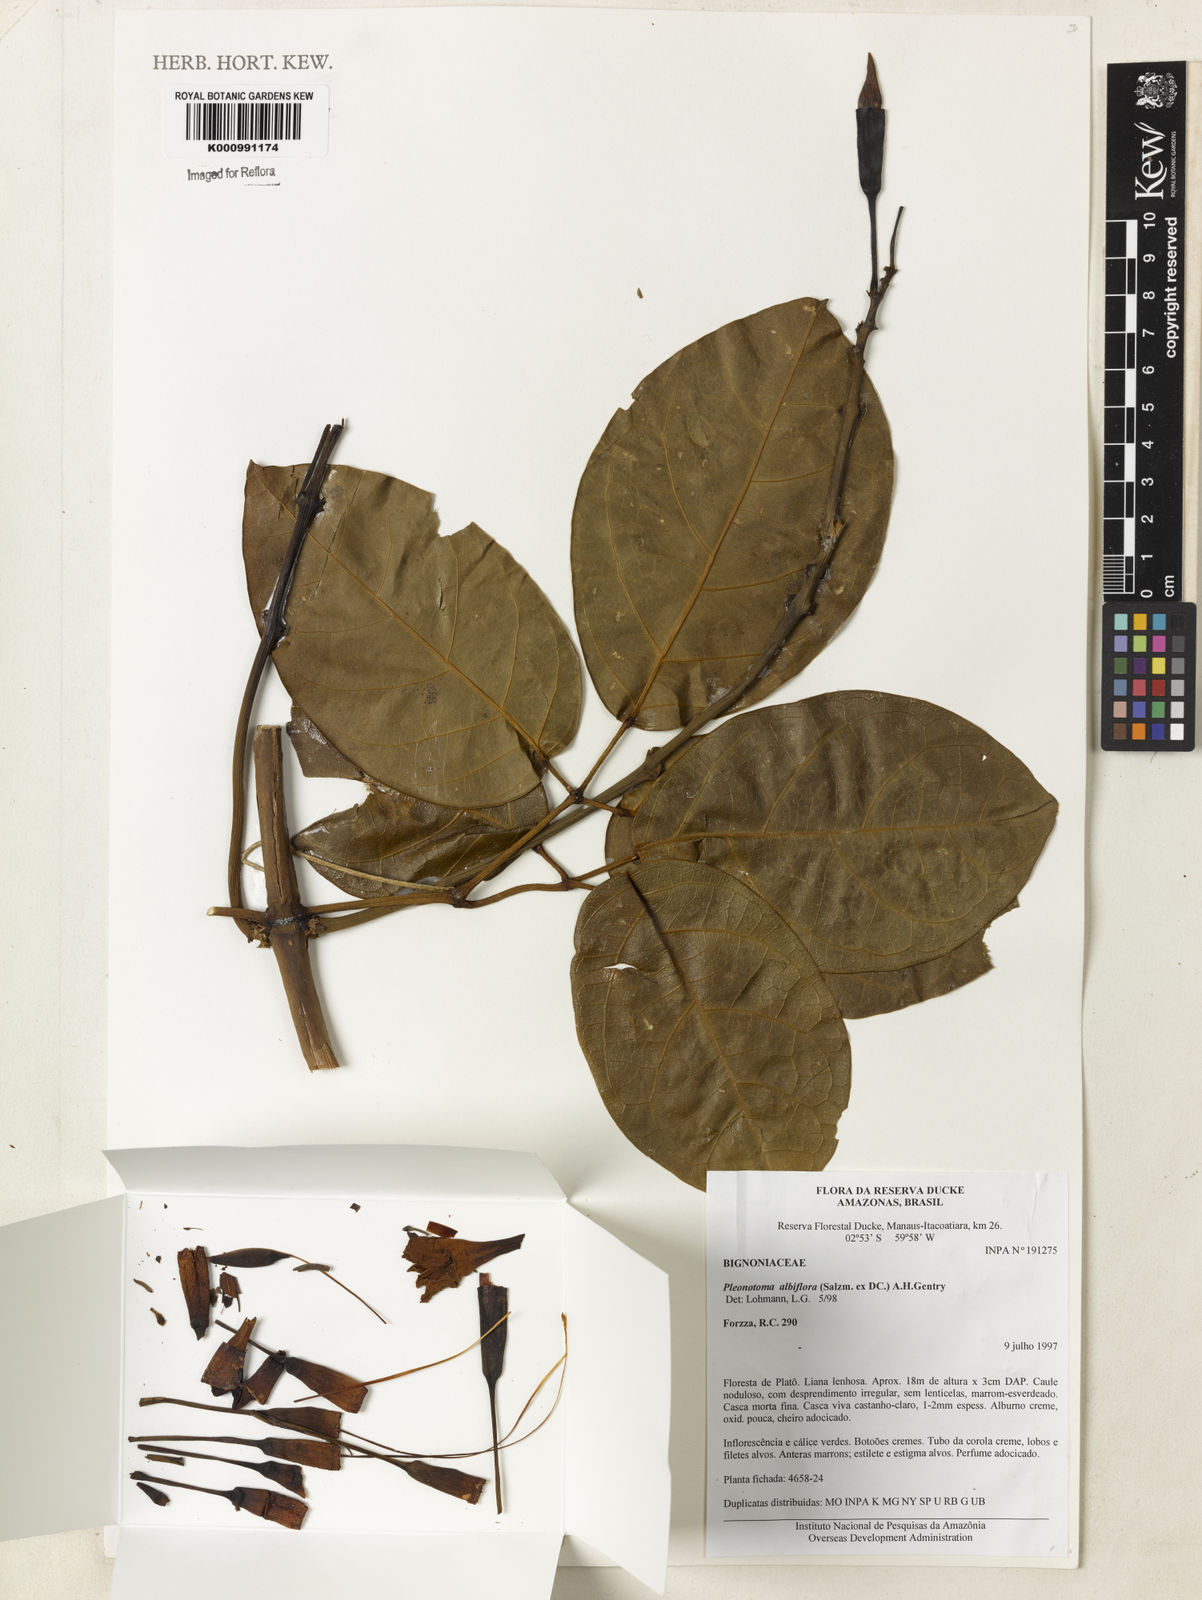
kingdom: Plantae
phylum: Tracheophyta
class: Magnoliopsida
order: Lamiales
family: Bignoniaceae
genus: Adenocalymma
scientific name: Adenocalymma albiflorum
